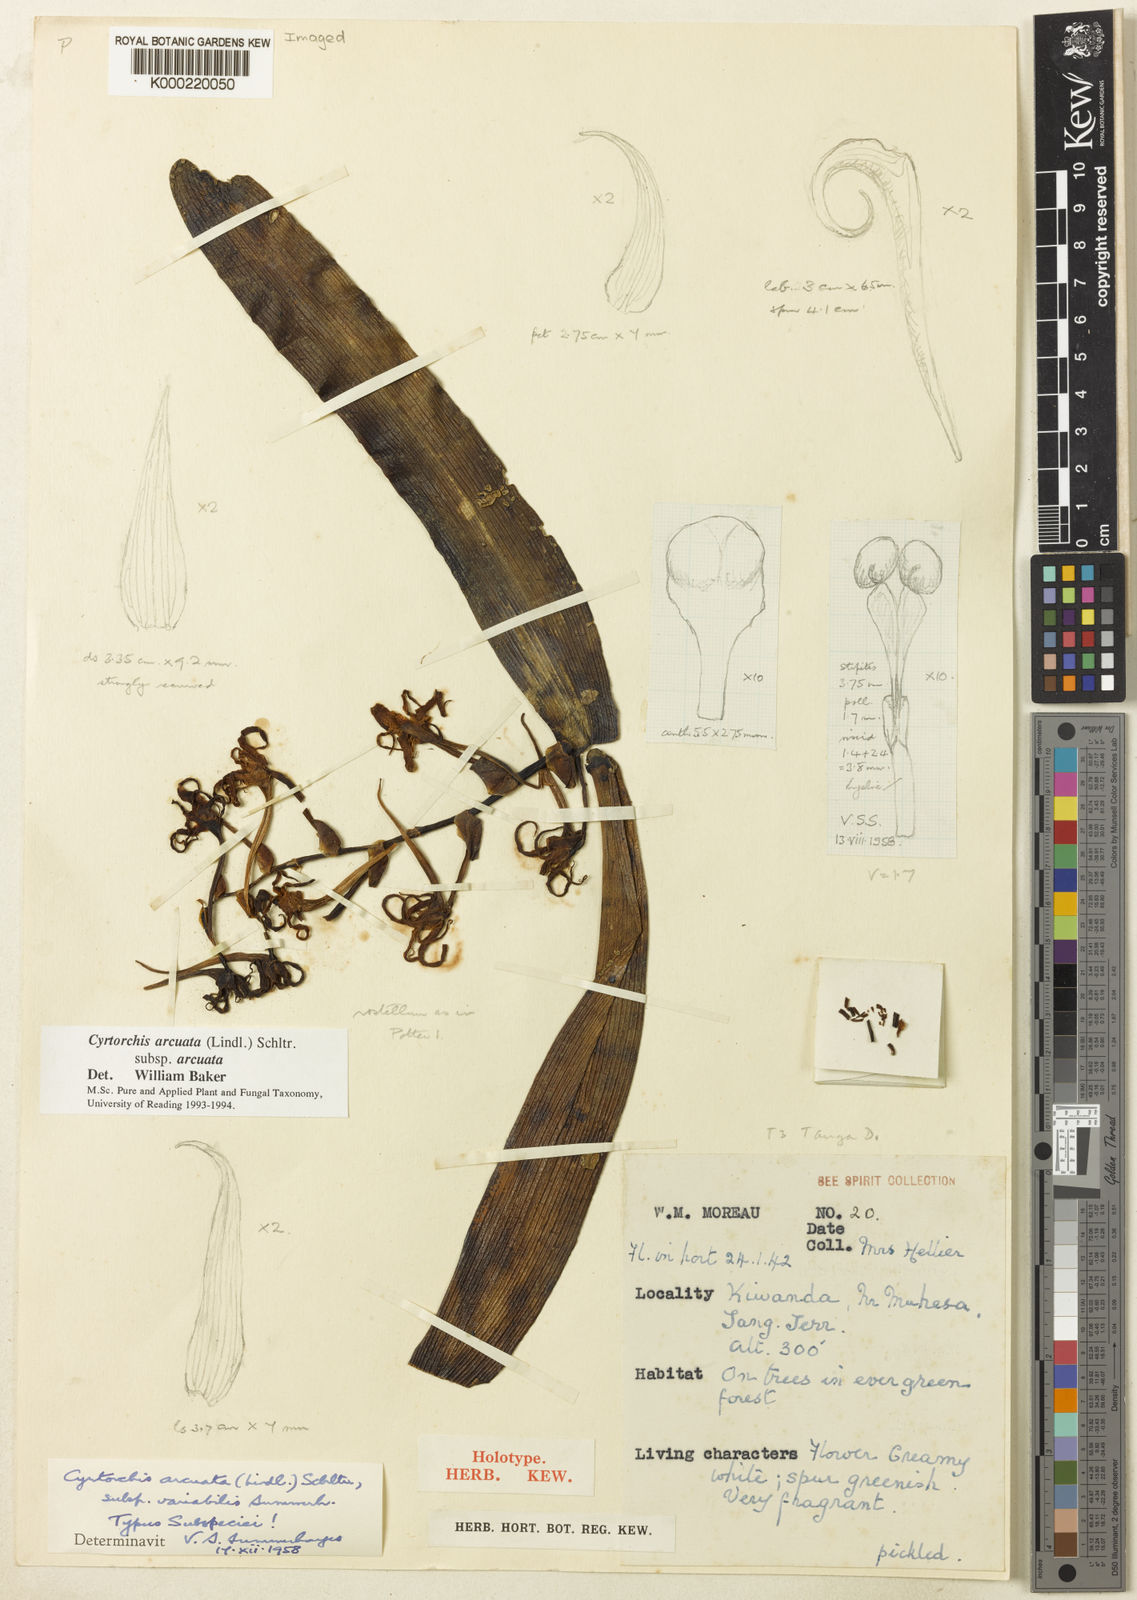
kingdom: Plantae
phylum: Tracheophyta
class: Liliopsida
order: Asparagales
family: Orchidaceae
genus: Cyrtorchis
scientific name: Cyrtorchis arcuata
